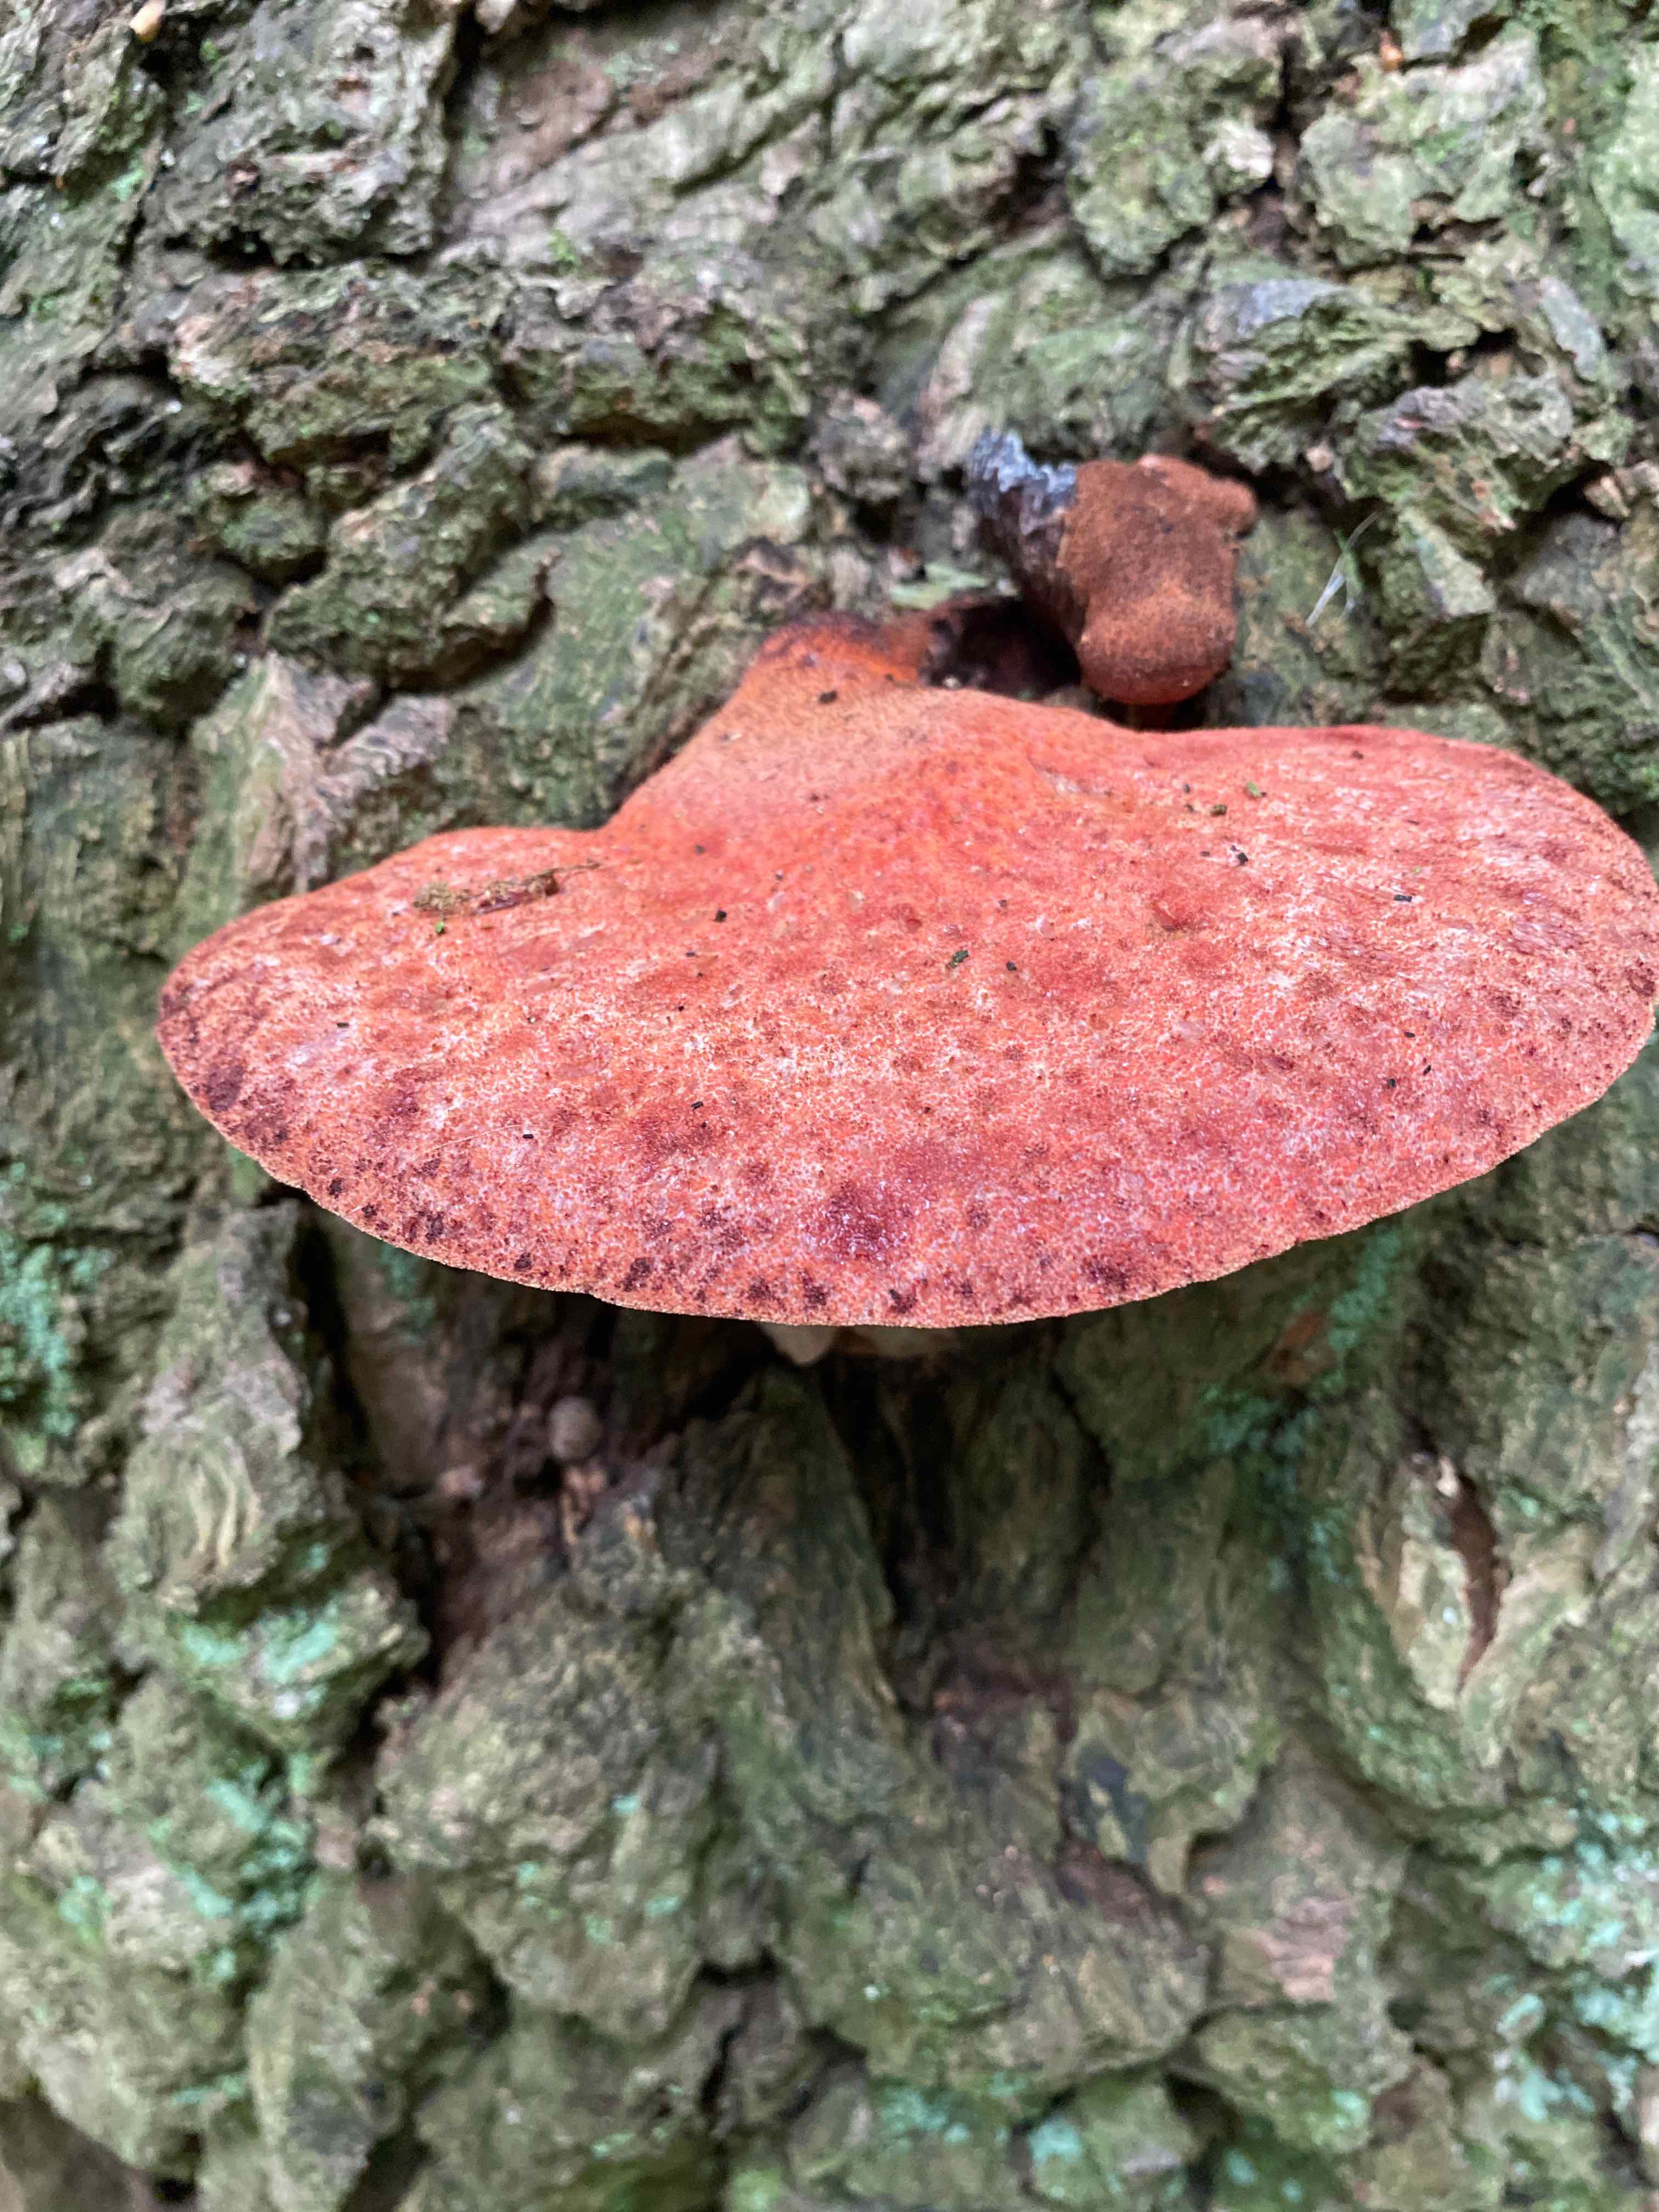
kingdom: Fungi
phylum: Basidiomycota
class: Agaricomycetes
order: Agaricales
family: Fistulinaceae
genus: Fistulina
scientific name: Fistulina hepatica
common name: oksetunge
